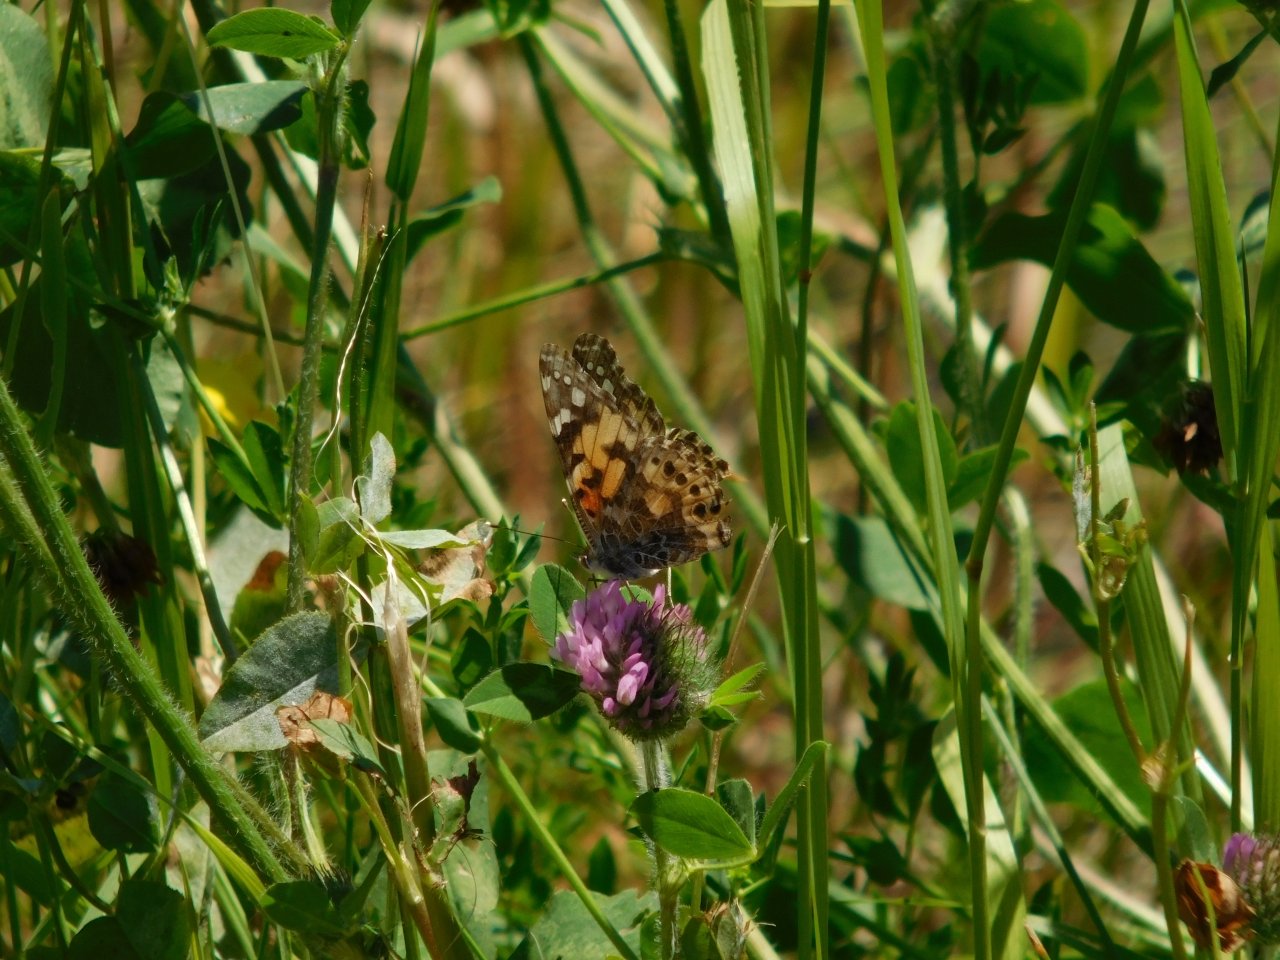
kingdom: Animalia
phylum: Arthropoda
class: Insecta
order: Lepidoptera
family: Nymphalidae
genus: Vanessa
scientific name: Vanessa cardui
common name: Painted Lady
